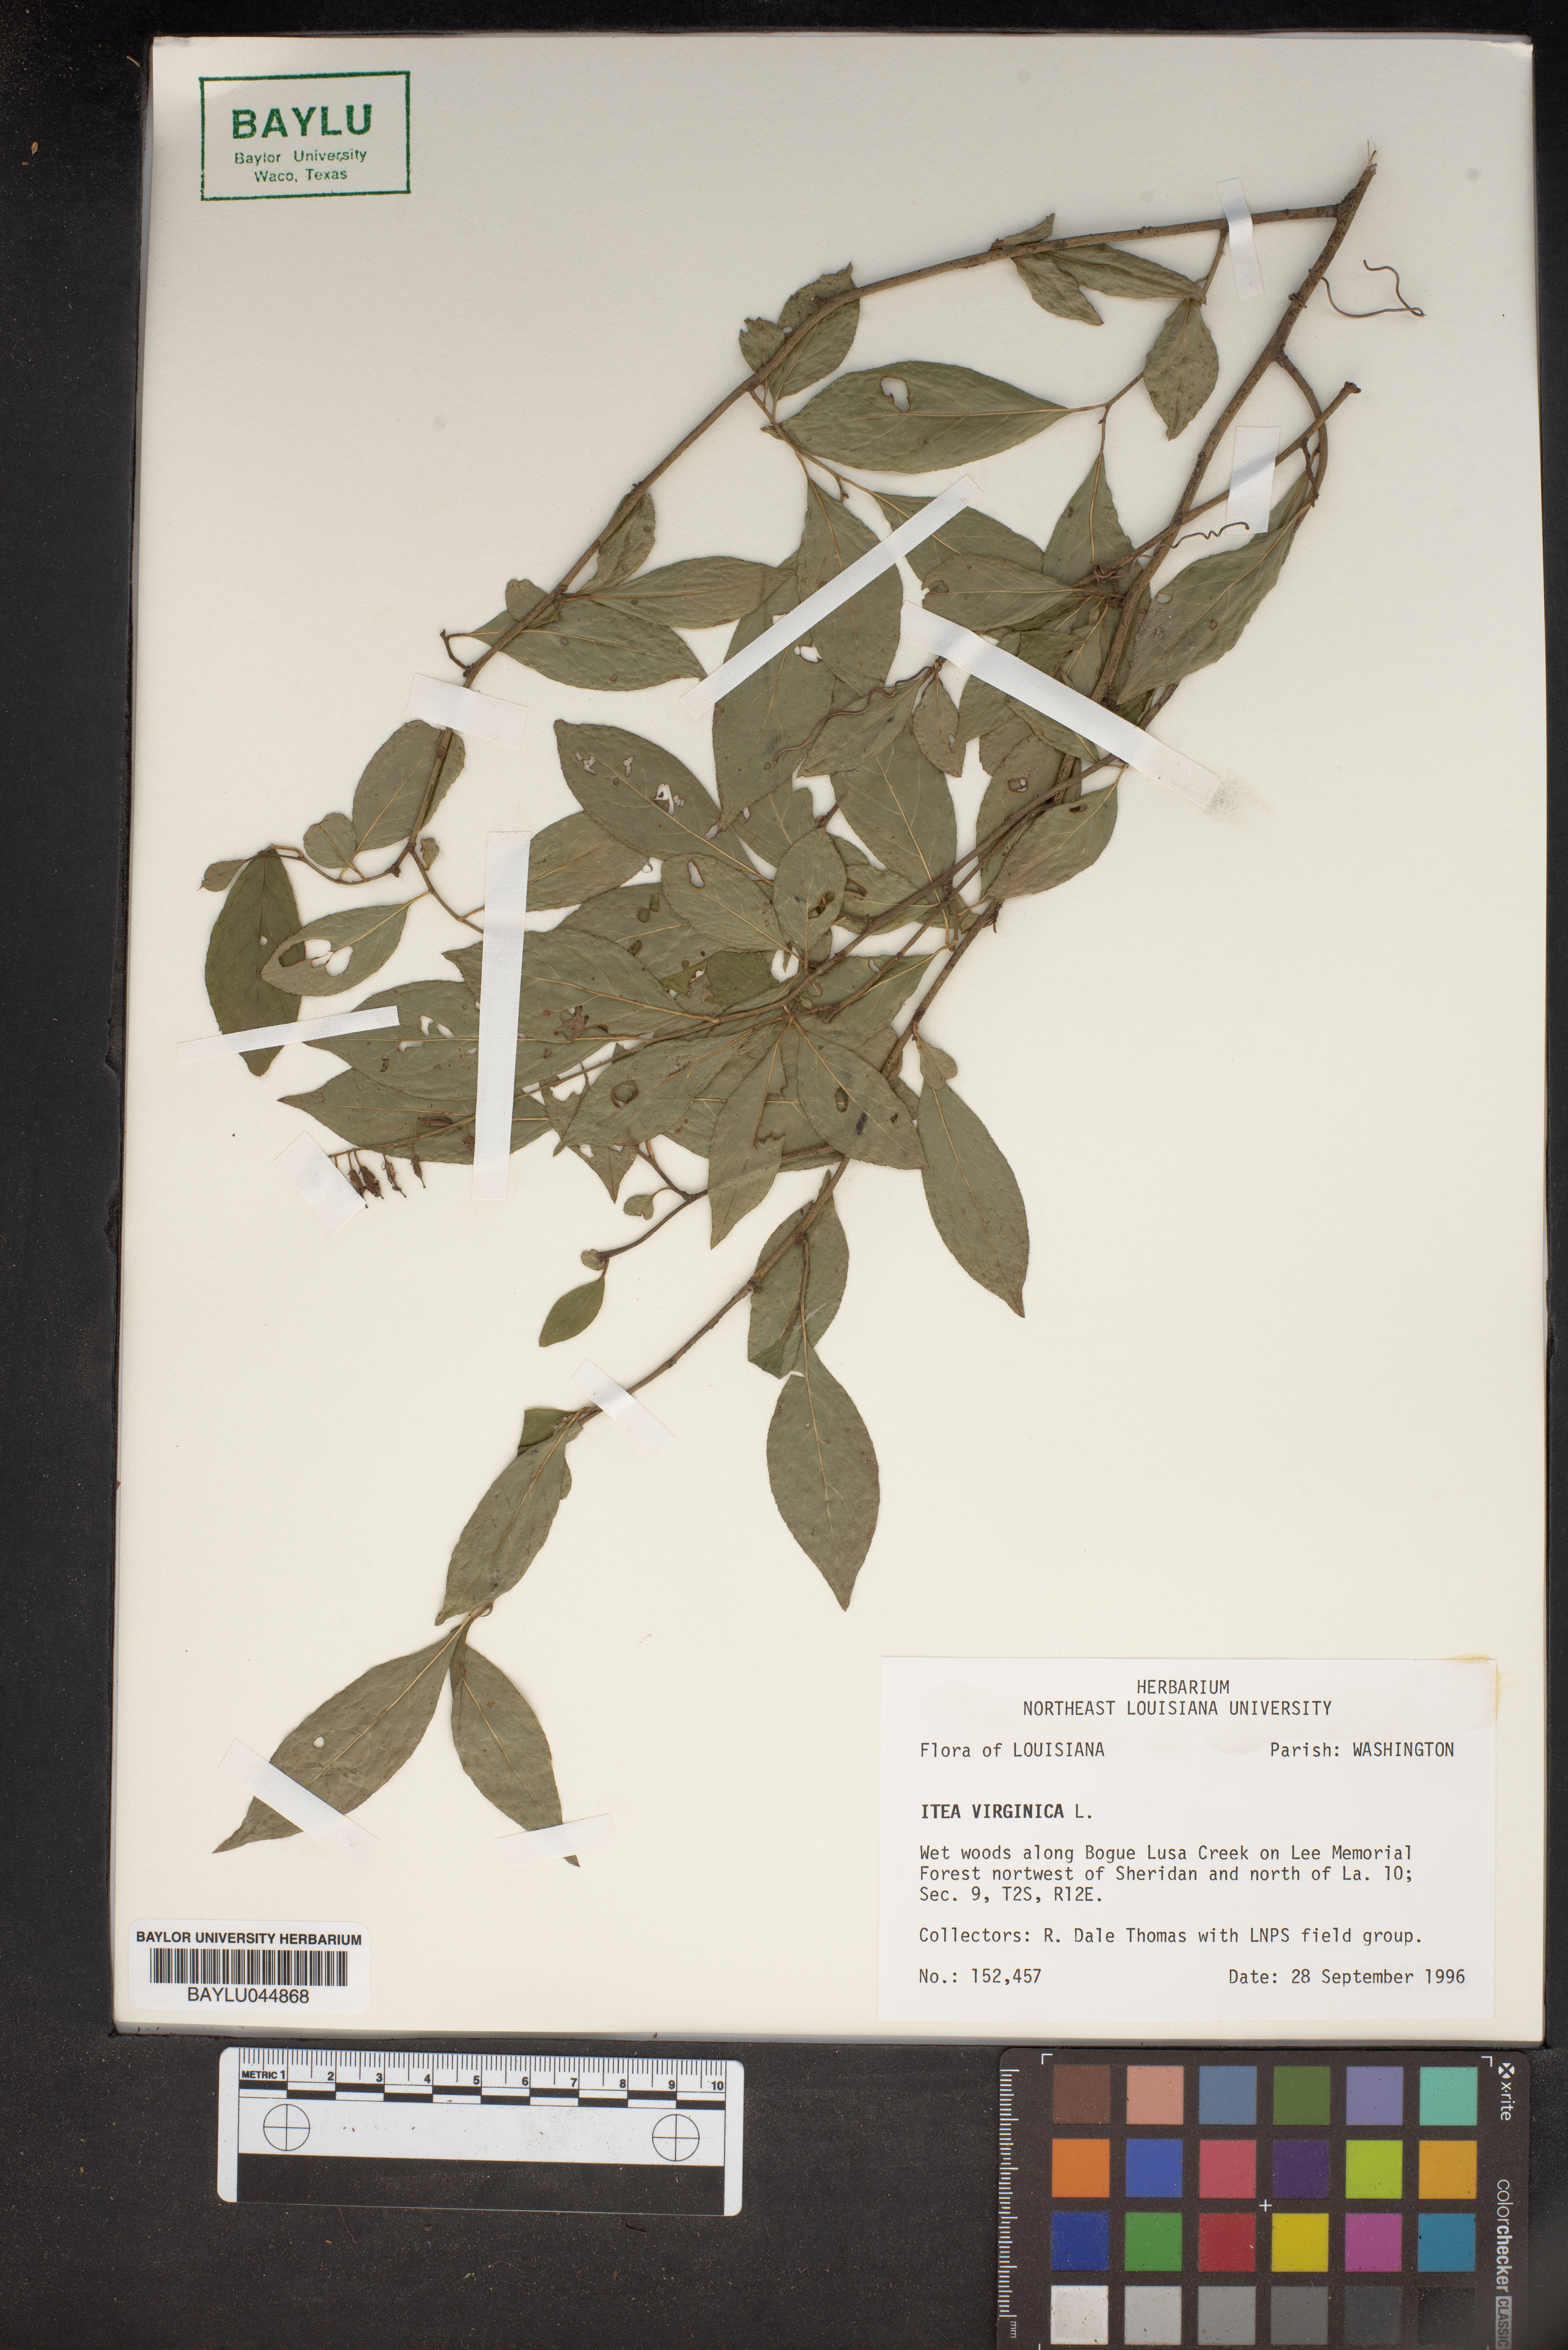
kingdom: Plantae
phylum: Tracheophyta
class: Magnoliopsida
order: Saxifragales
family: Iteaceae
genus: Itea
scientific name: Itea virginica
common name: Sweetspire
